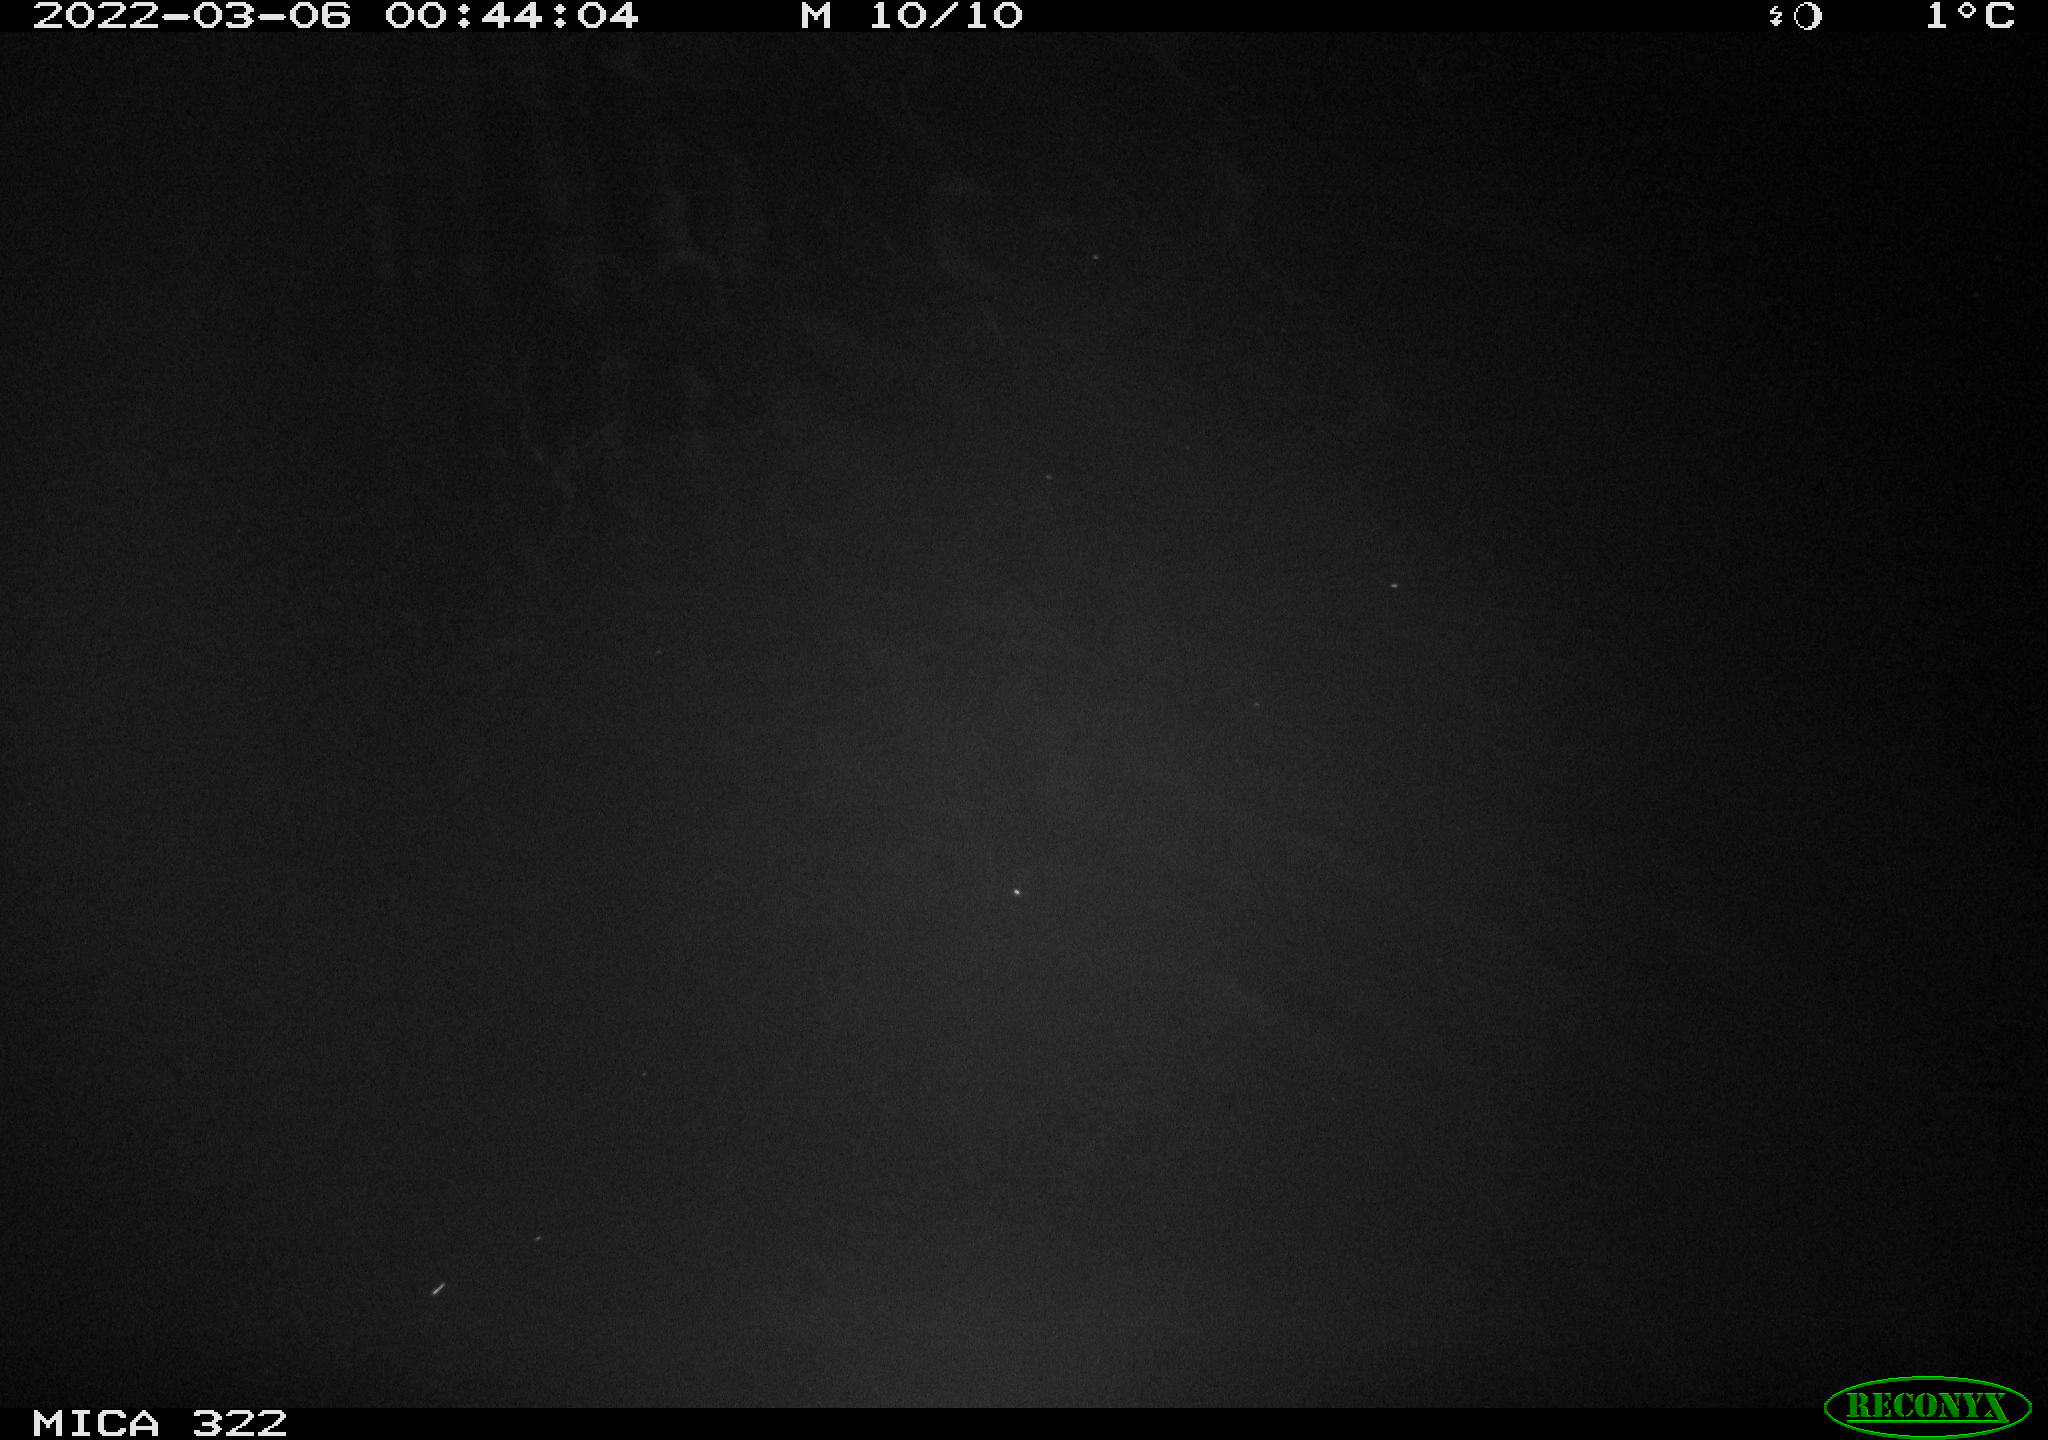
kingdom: Animalia
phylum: Chordata
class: Aves
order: Pelecaniformes
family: Ardeidae
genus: Ardea
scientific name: Ardea
